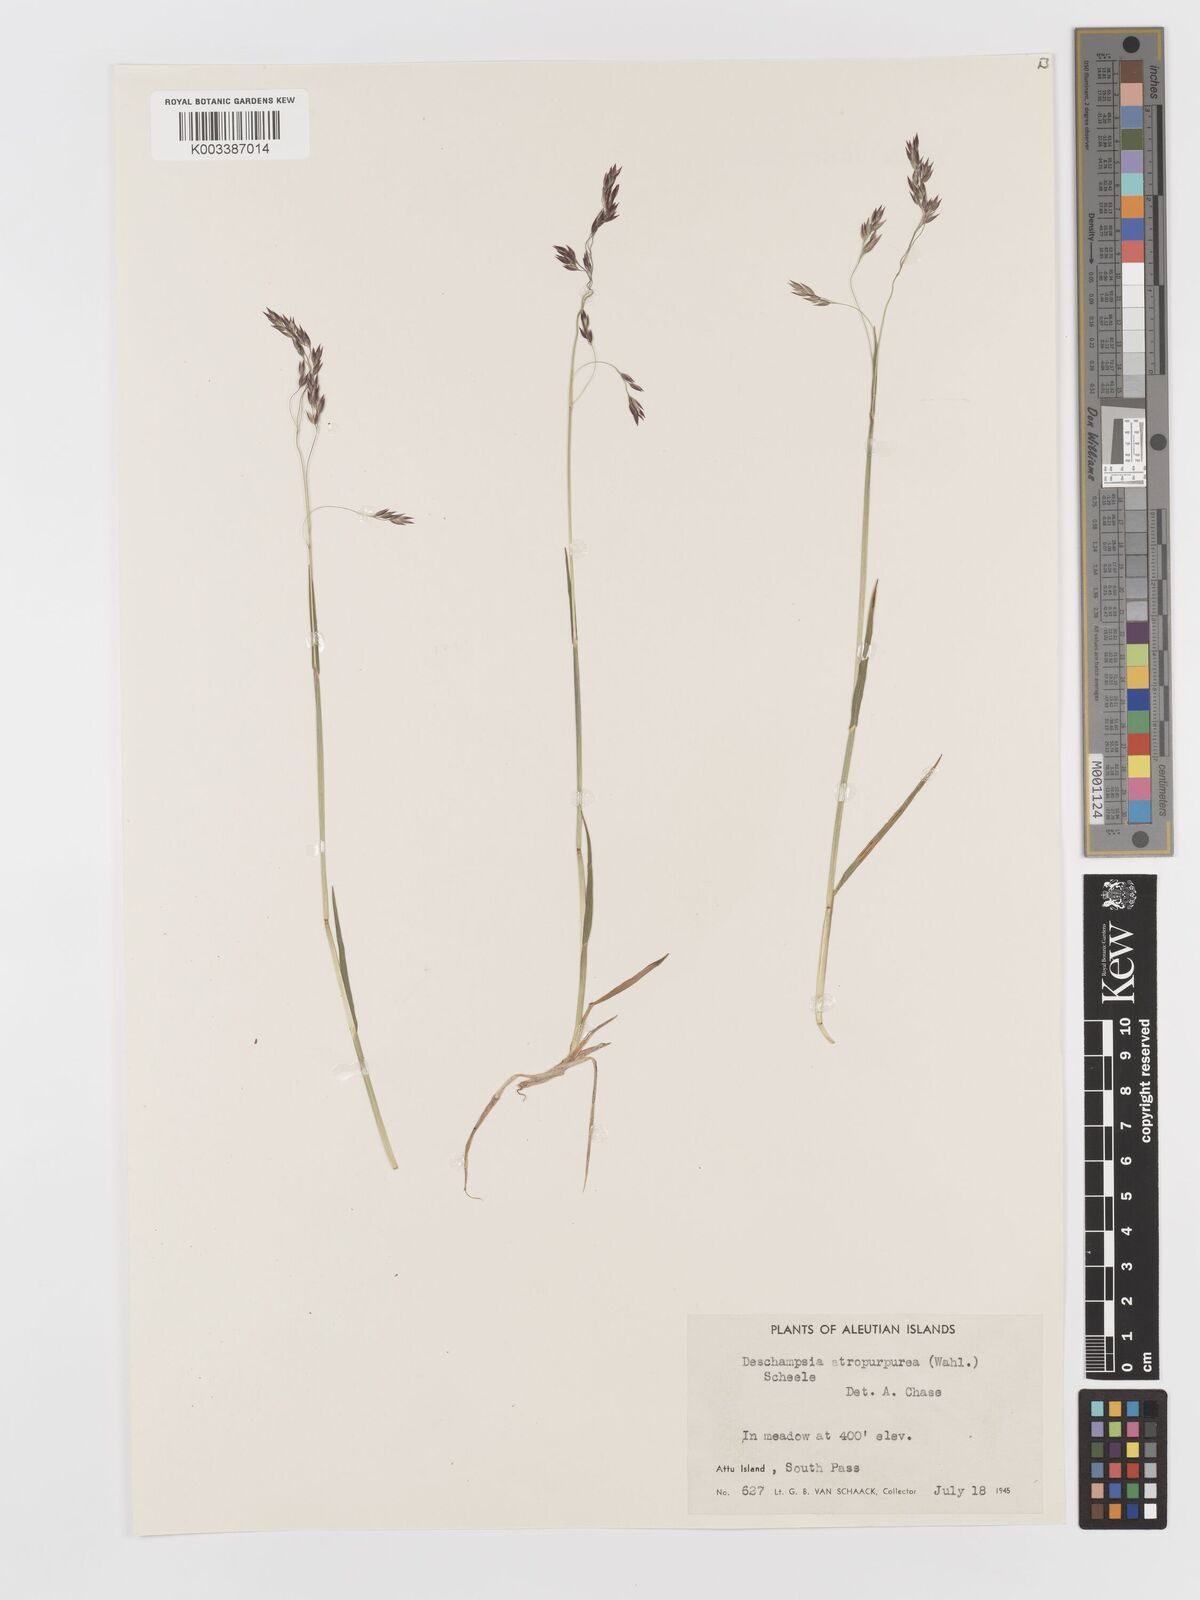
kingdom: Plantae
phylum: Tracheophyta
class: Liliopsida
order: Poales
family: Poaceae
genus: Vahlodea
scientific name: Vahlodea atropurpurea
